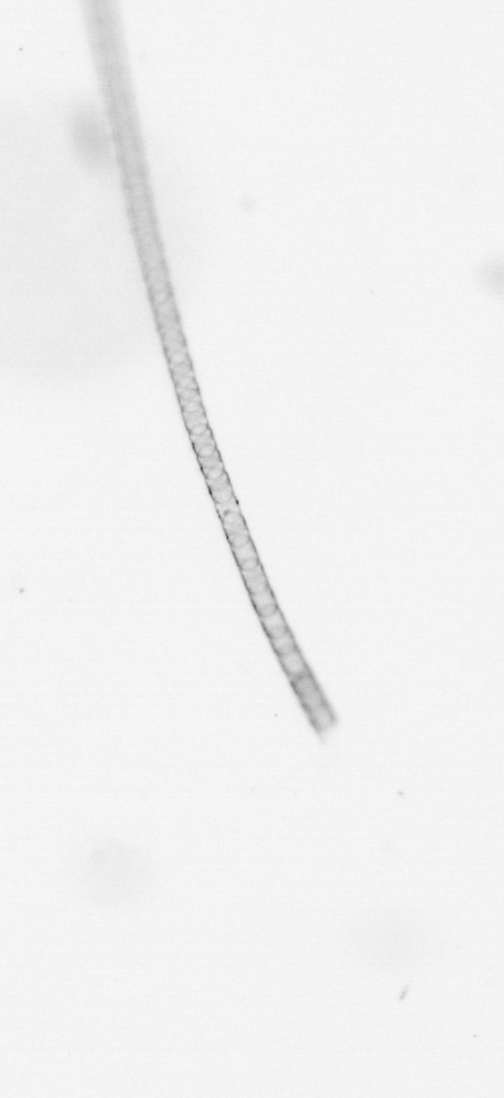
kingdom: Chromista
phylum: Ochrophyta
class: Bacillariophyceae
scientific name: Bacillariophyceae
